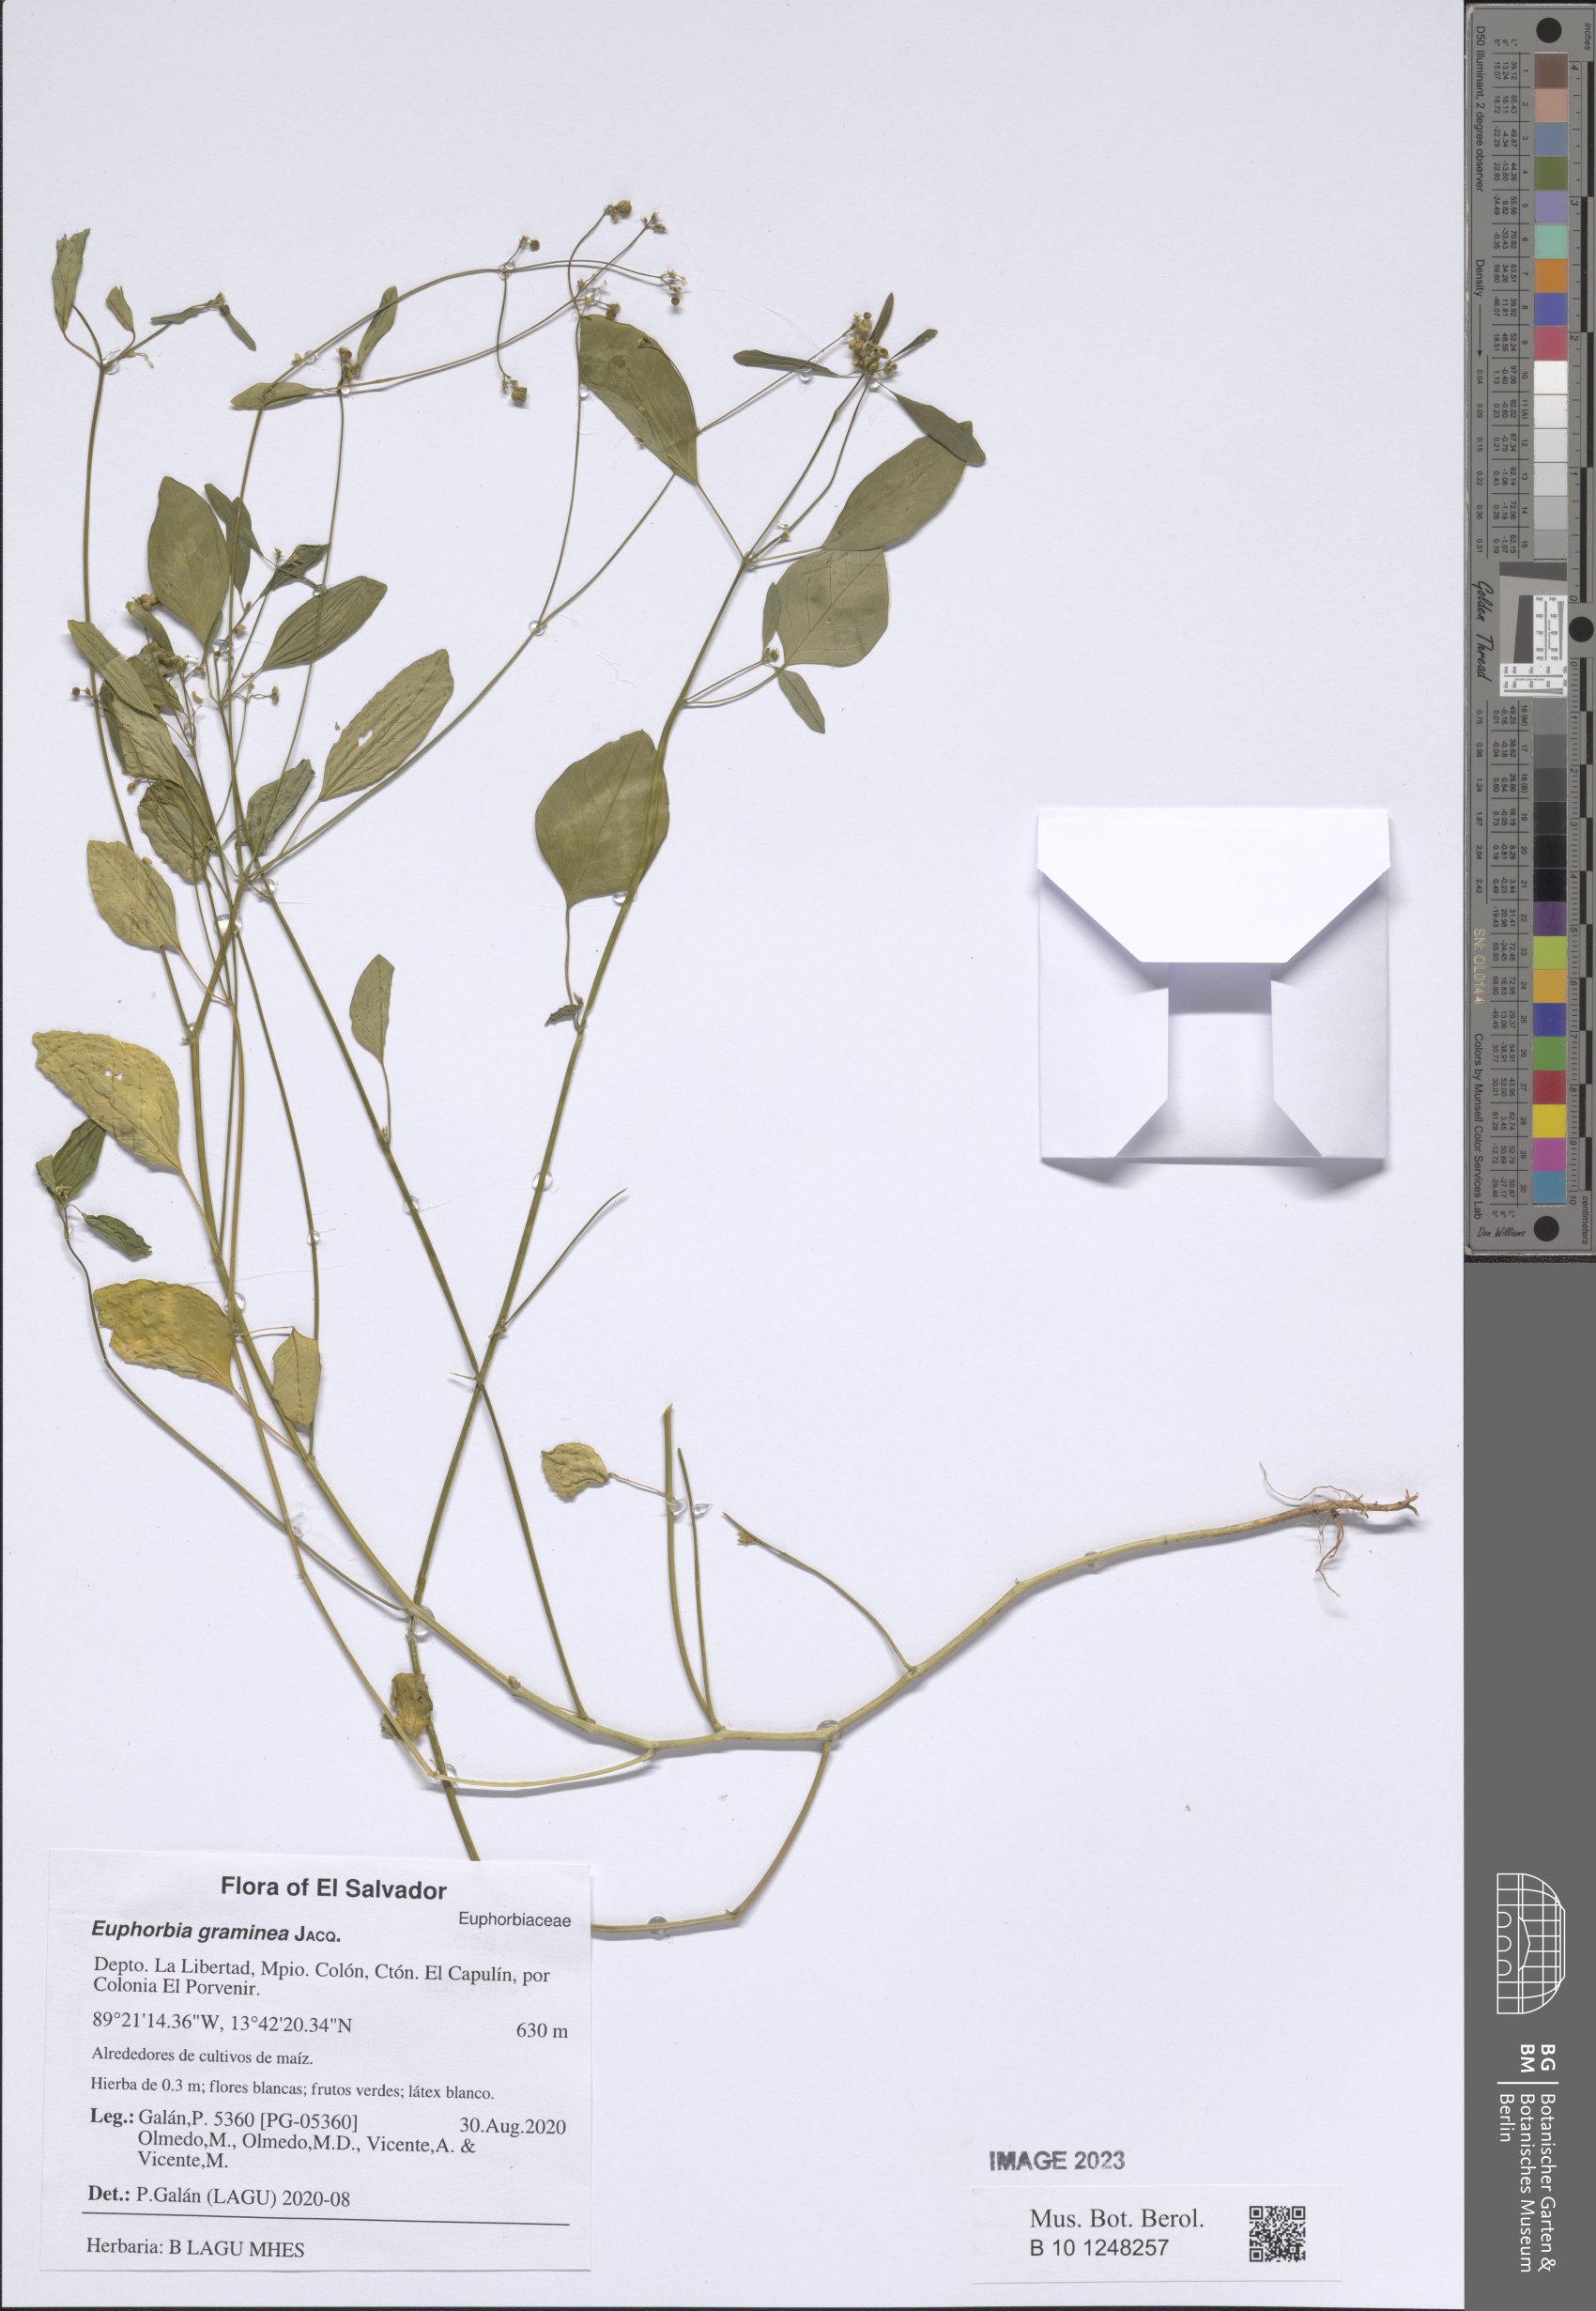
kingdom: Plantae
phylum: Tracheophyta
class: Magnoliopsida
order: Malpighiales
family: Euphorbiaceae
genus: Euphorbia
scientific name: Euphorbia graminea
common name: Grassleaf spurge
